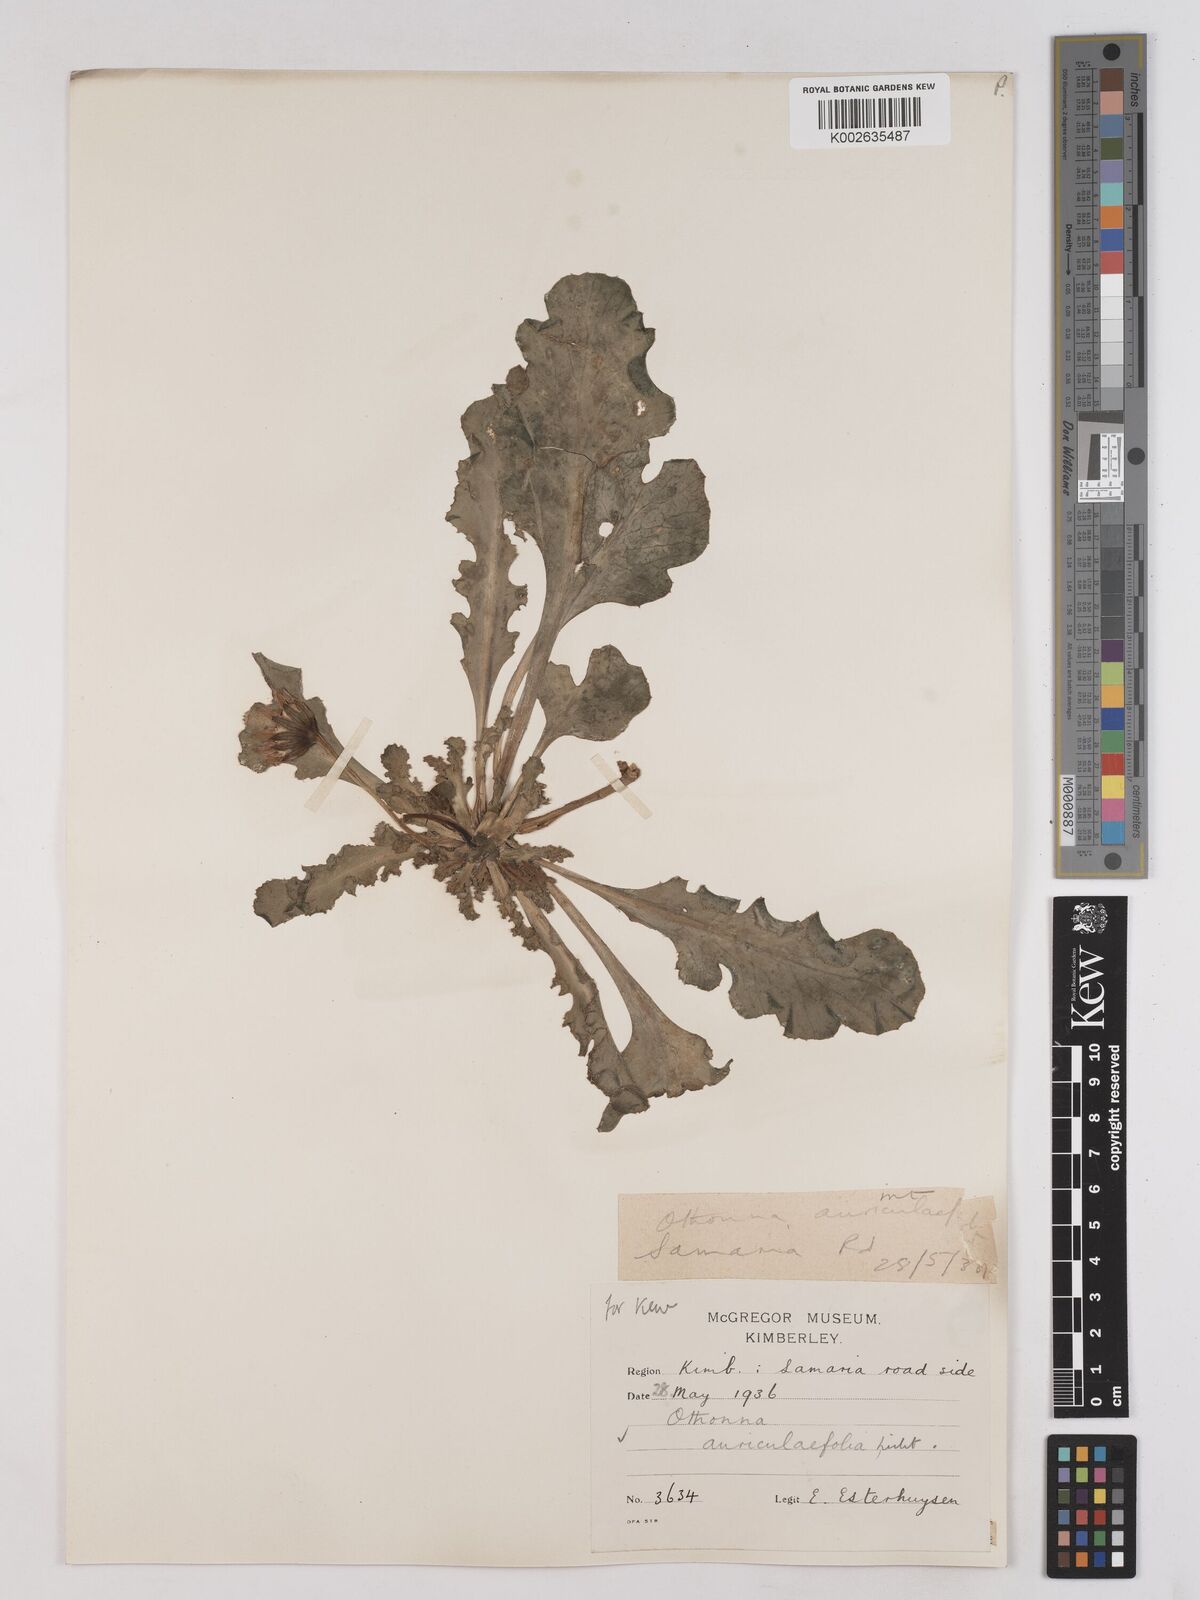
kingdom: Plantae
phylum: Tracheophyta
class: Magnoliopsida
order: Asterales
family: Asteraceae
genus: Othonna
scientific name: Othonna auriculifolia
